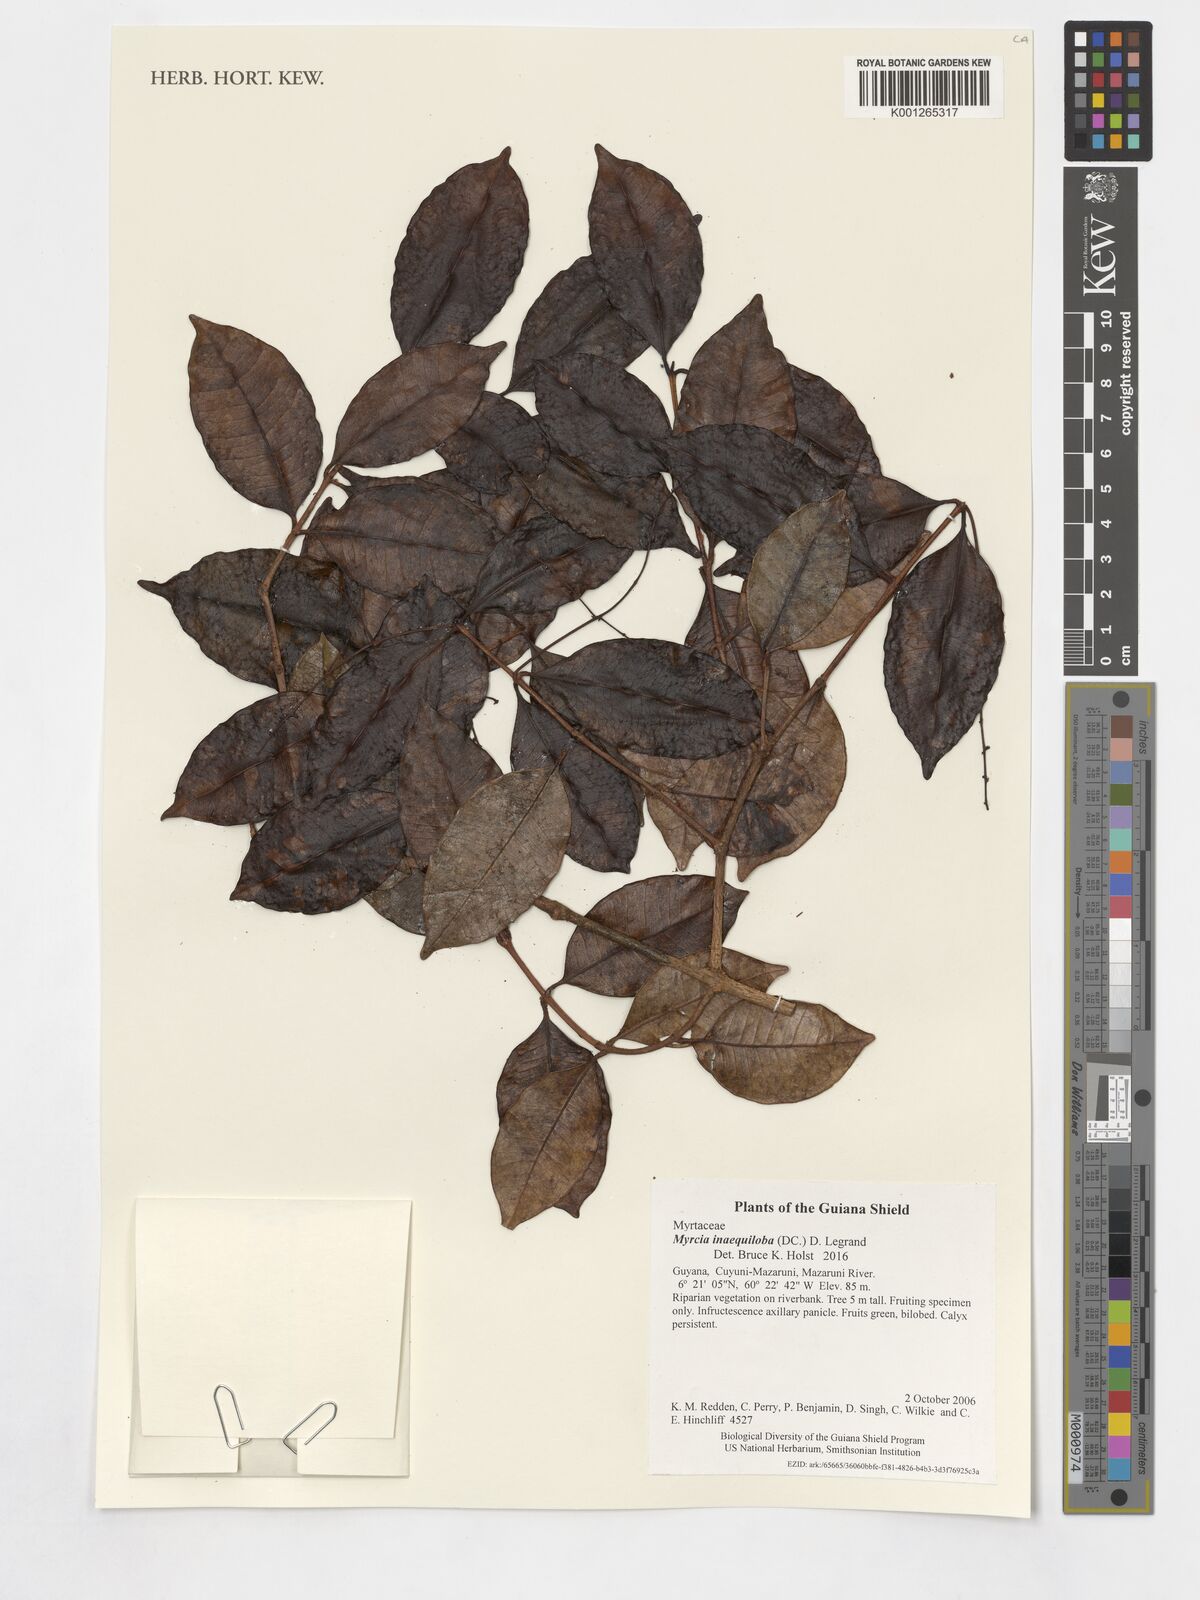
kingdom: Plantae
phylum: Tracheophyta
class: Magnoliopsida
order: Myrtales
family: Myrtaceae
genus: Myrcia
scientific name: Myrcia inaequiloba
